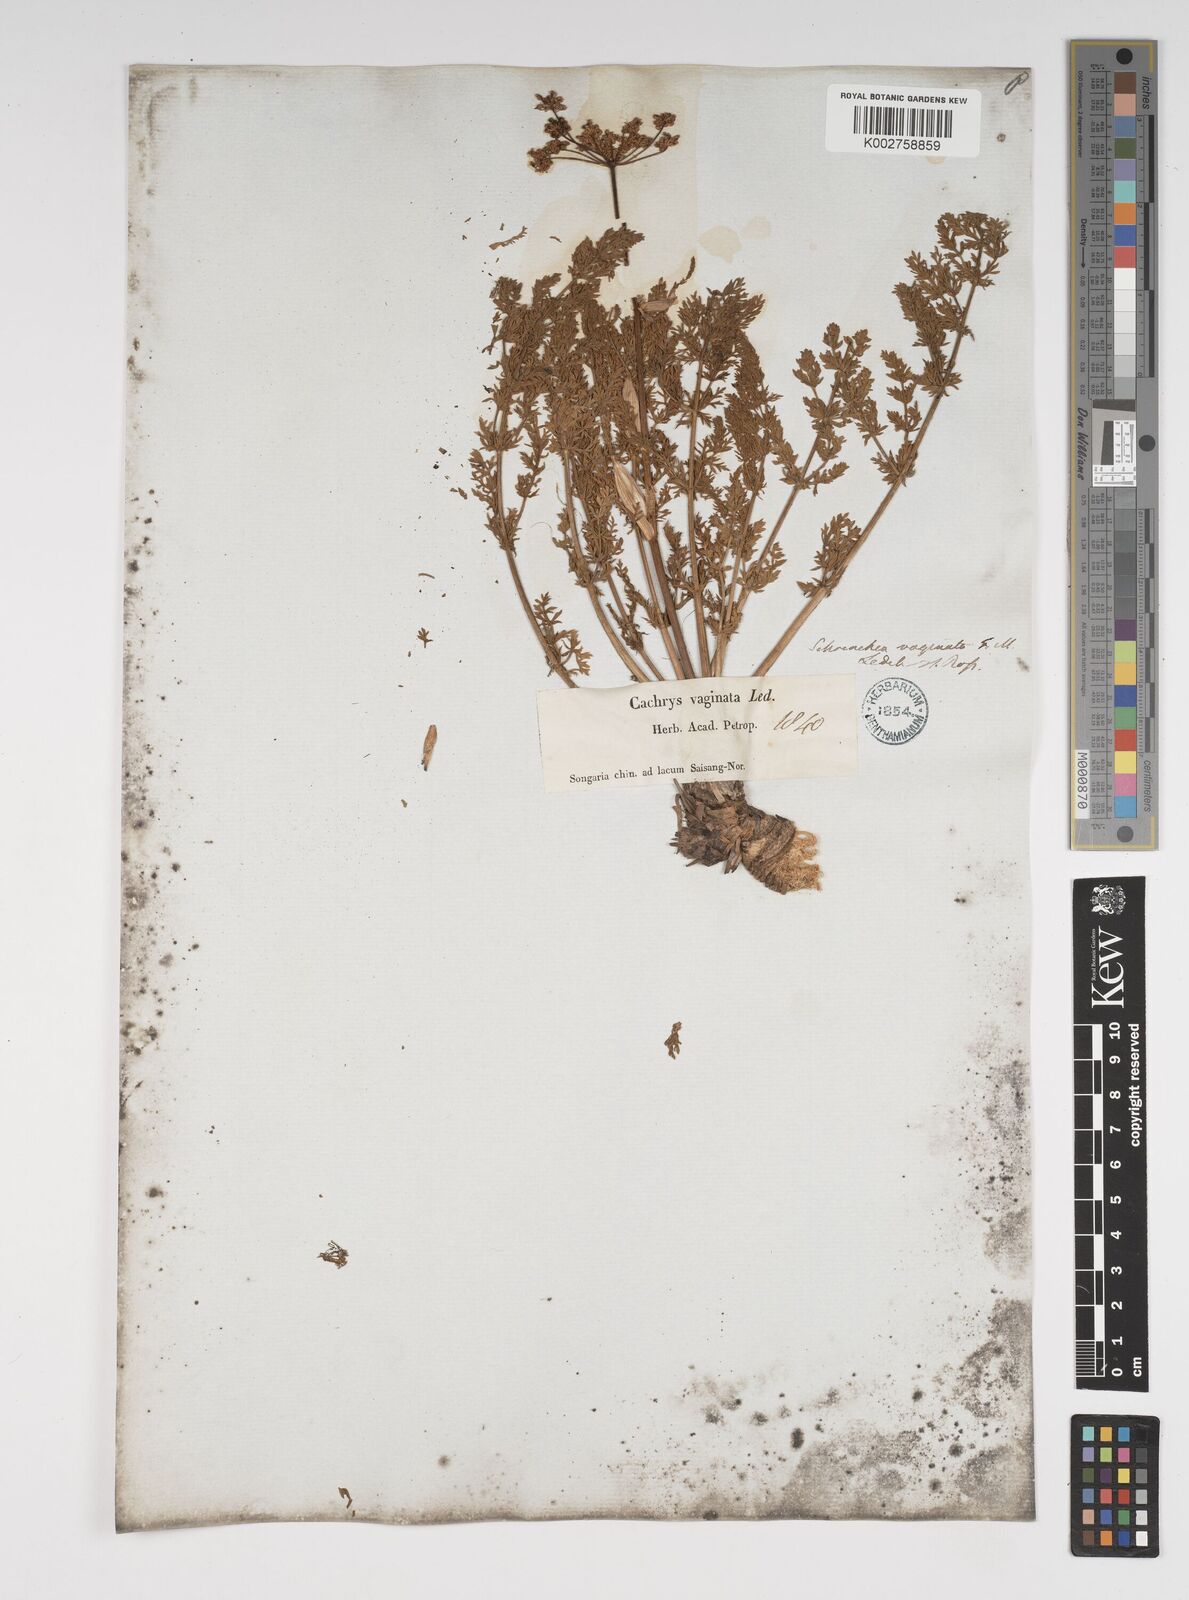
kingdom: Plantae
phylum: Tracheophyta
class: Magnoliopsida
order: Apiales
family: Apiaceae
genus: Cachrys
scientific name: Cachrys
